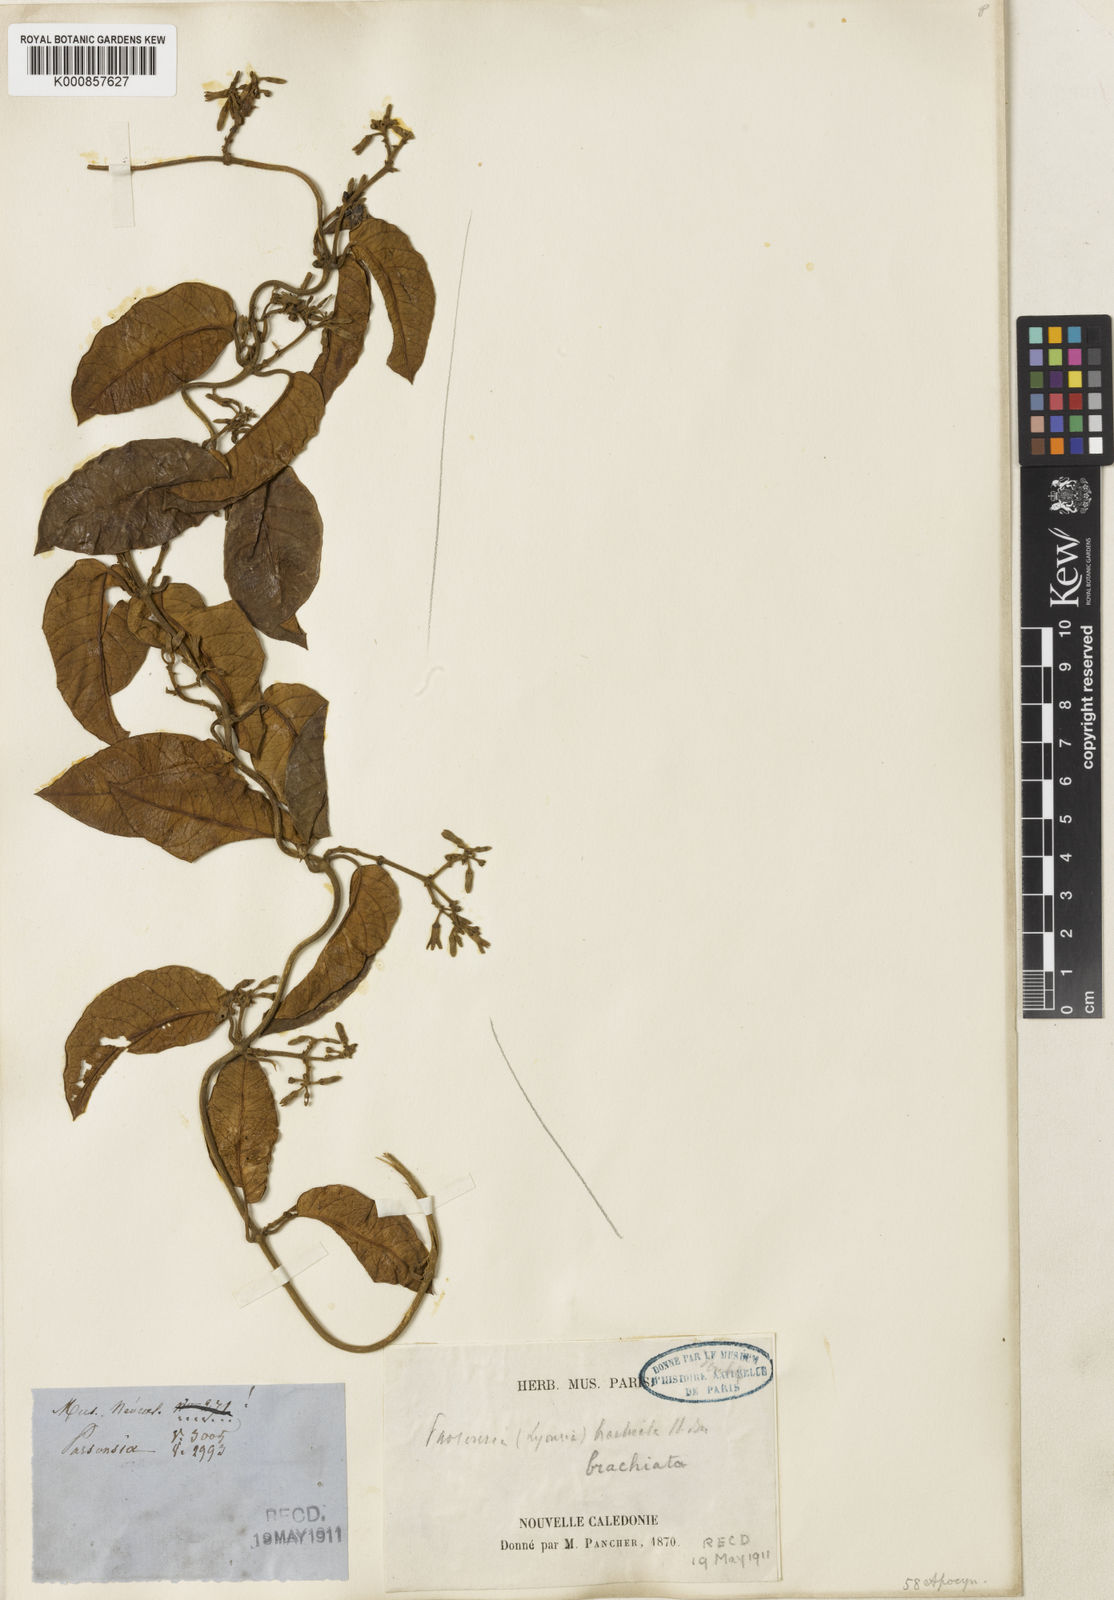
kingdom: Plantae
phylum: Tracheophyta
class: Magnoliopsida
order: Gentianales
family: Apocynaceae
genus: Parsonsia
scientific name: Parsonsia brachiata
